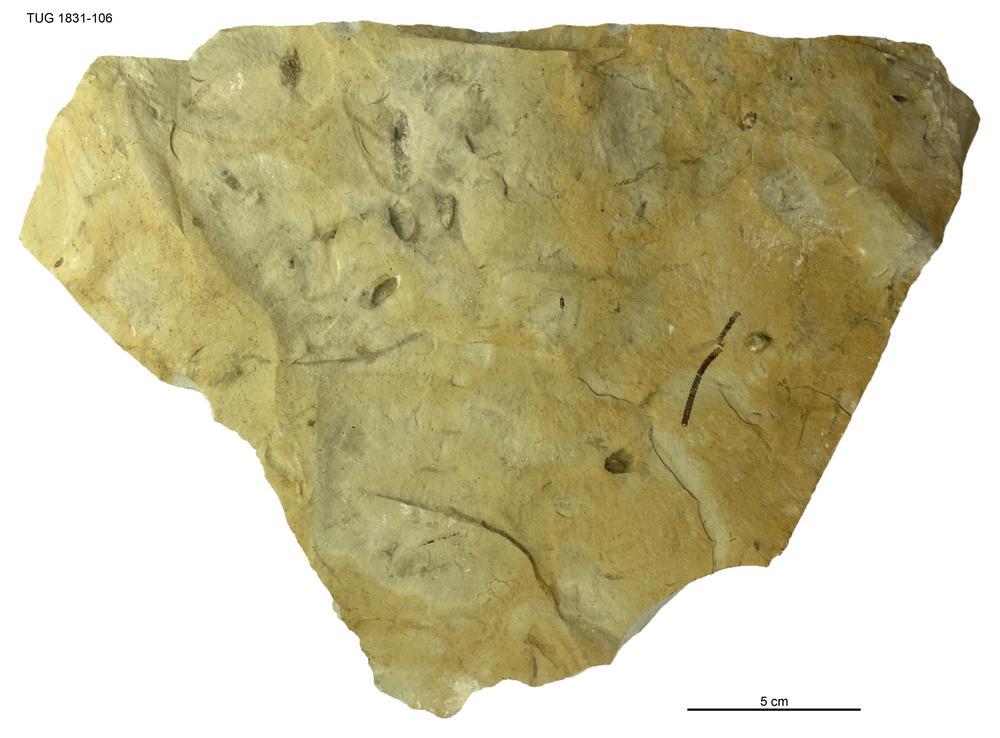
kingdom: Animalia
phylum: Echinodermata
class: Crinoidea
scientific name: Crinoidea
